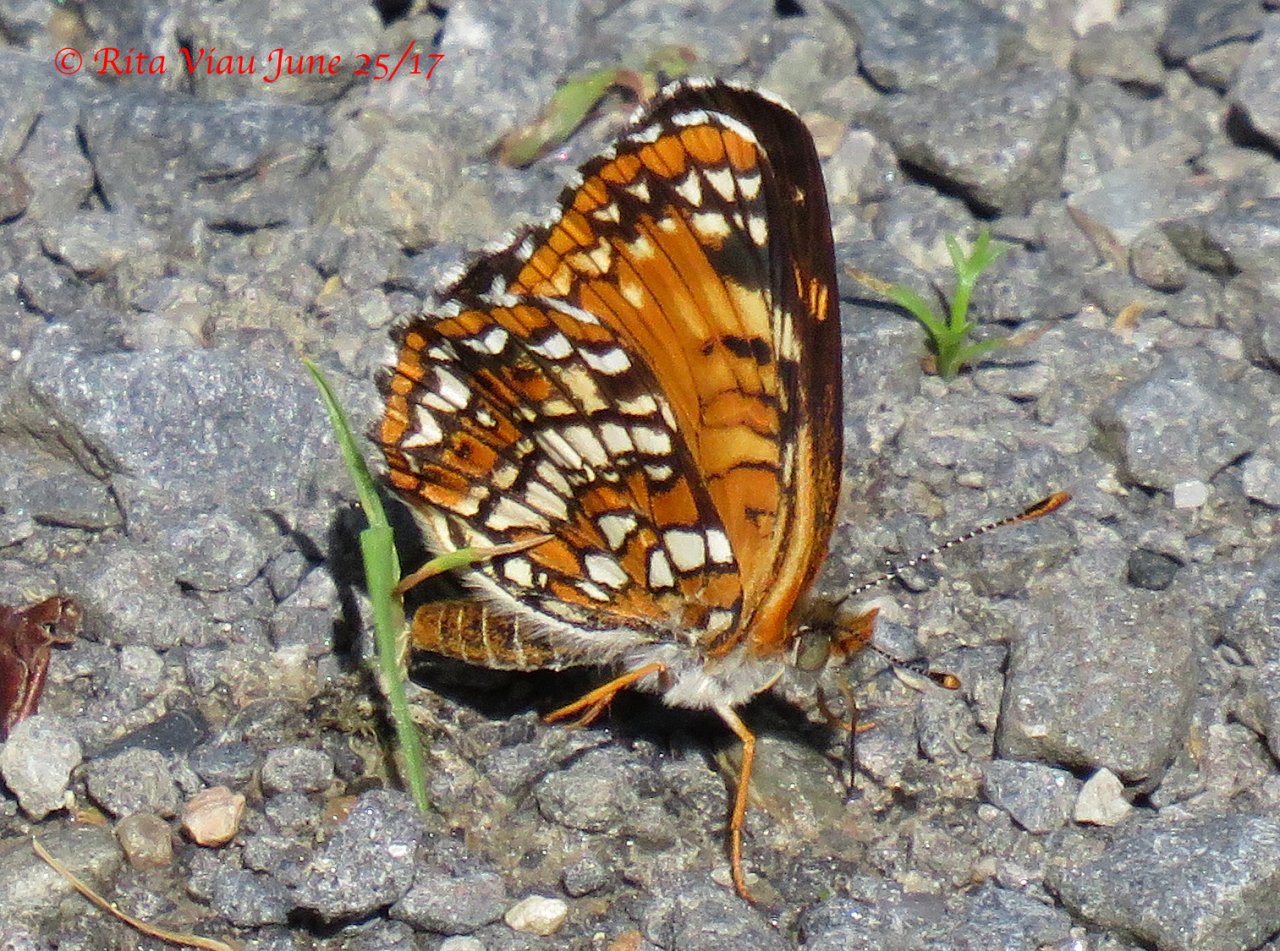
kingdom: Animalia
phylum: Arthropoda
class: Insecta
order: Lepidoptera
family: Nymphalidae
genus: Chlosyne
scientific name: Chlosyne harrisii
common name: Harris's Checkerspot
